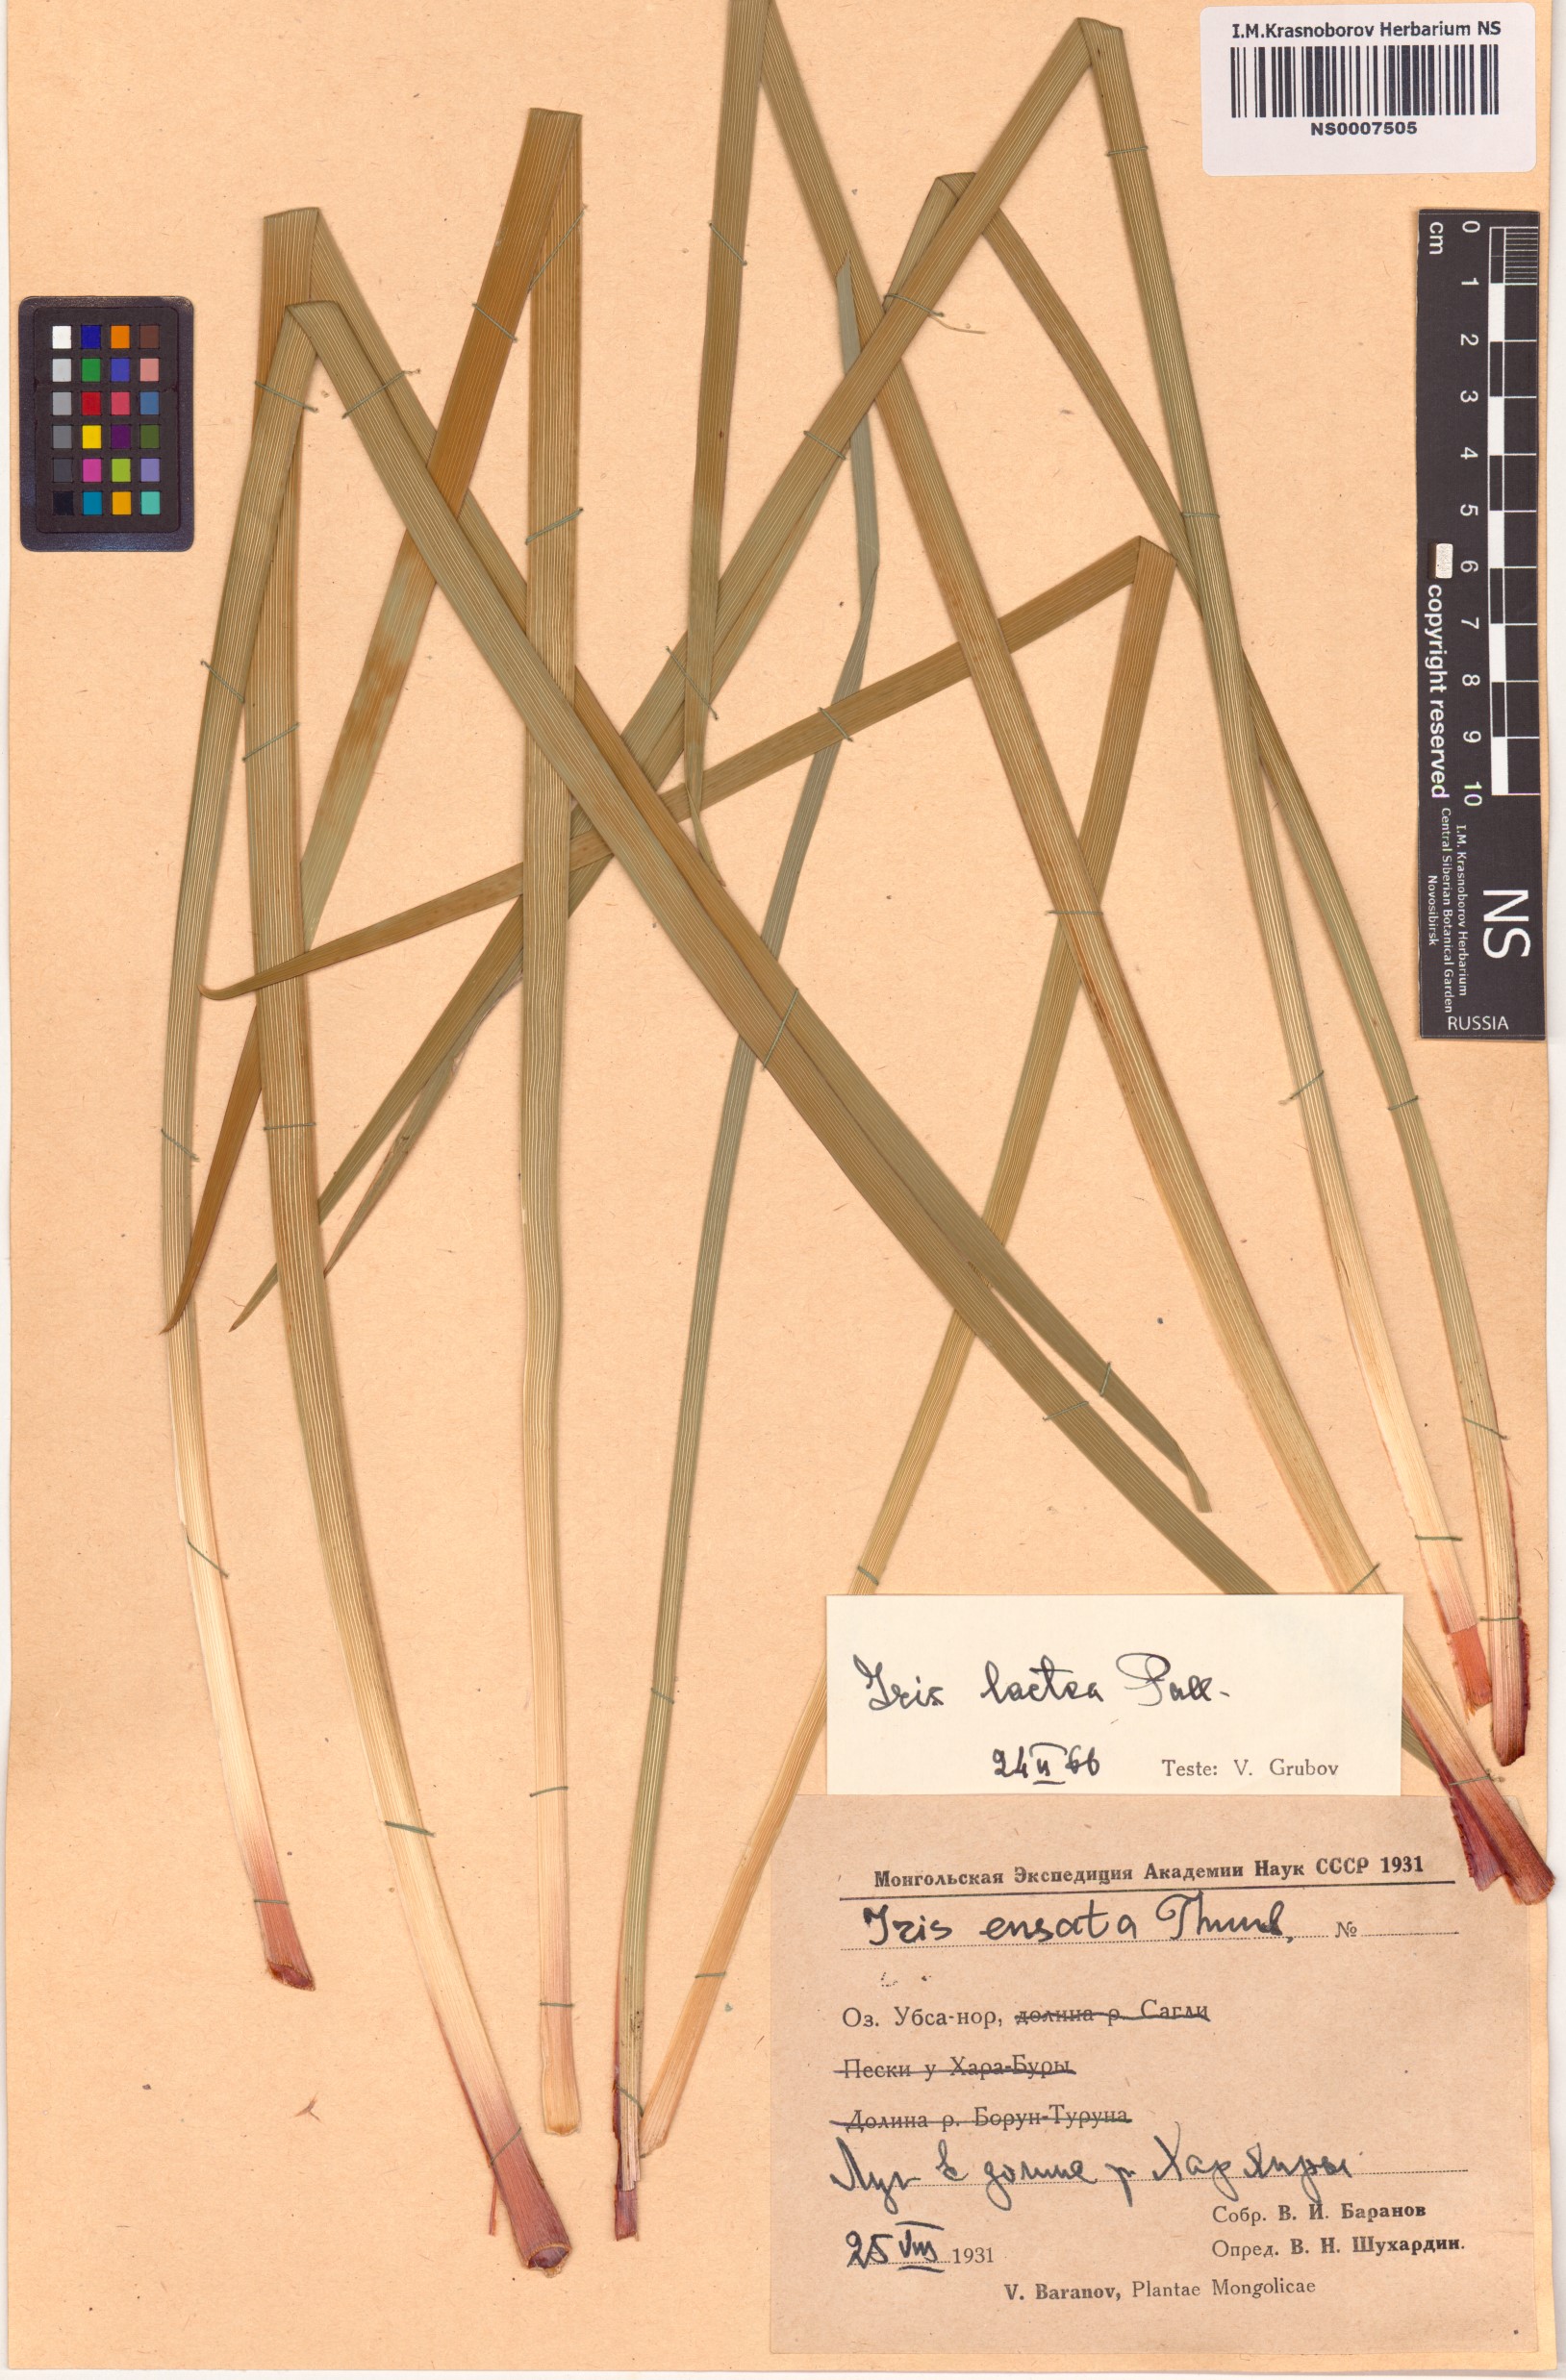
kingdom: Plantae
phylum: Tracheophyta
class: Liliopsida
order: Asparagales
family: Iridaceae
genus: Iris
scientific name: Iris lactea
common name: White-flower chinese iris
